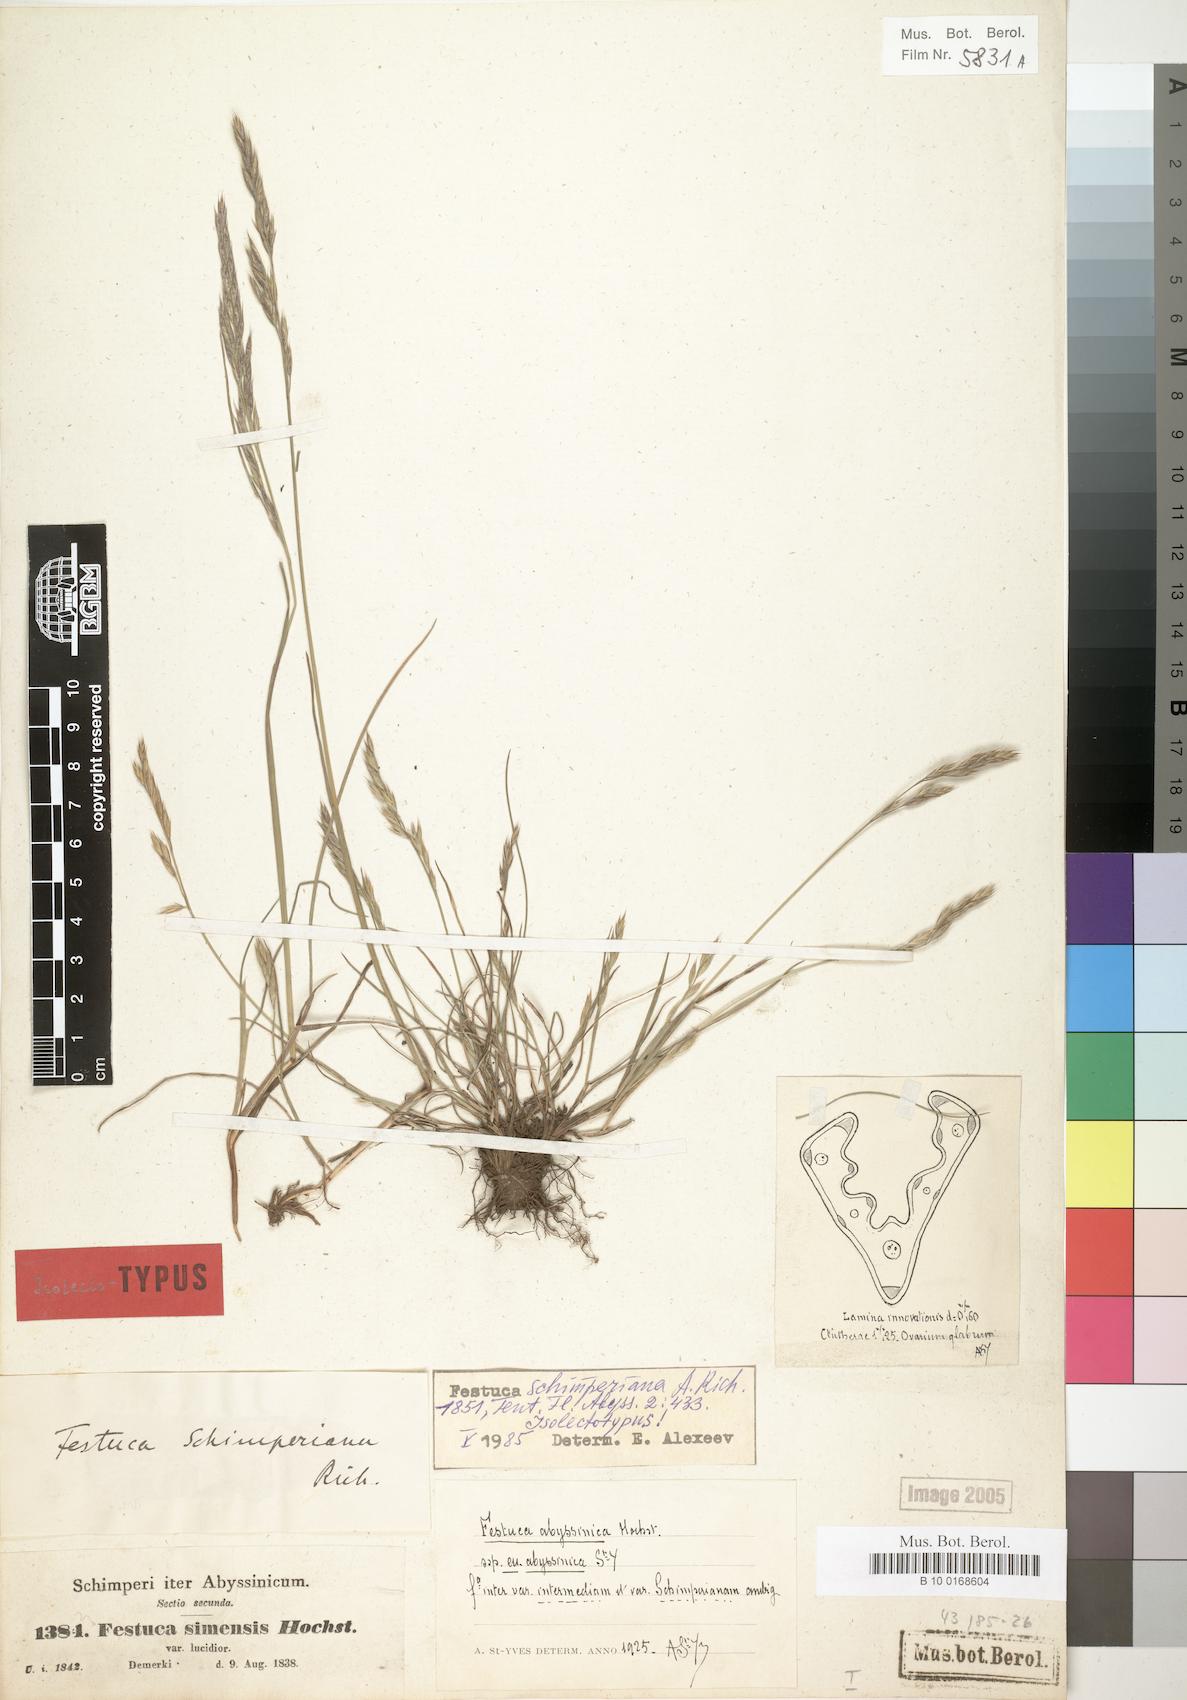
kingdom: Plantae
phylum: Tracheophyta
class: Liliopsida
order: Poales
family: Poaceae
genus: Festuca
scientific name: Festuca abyssinica
